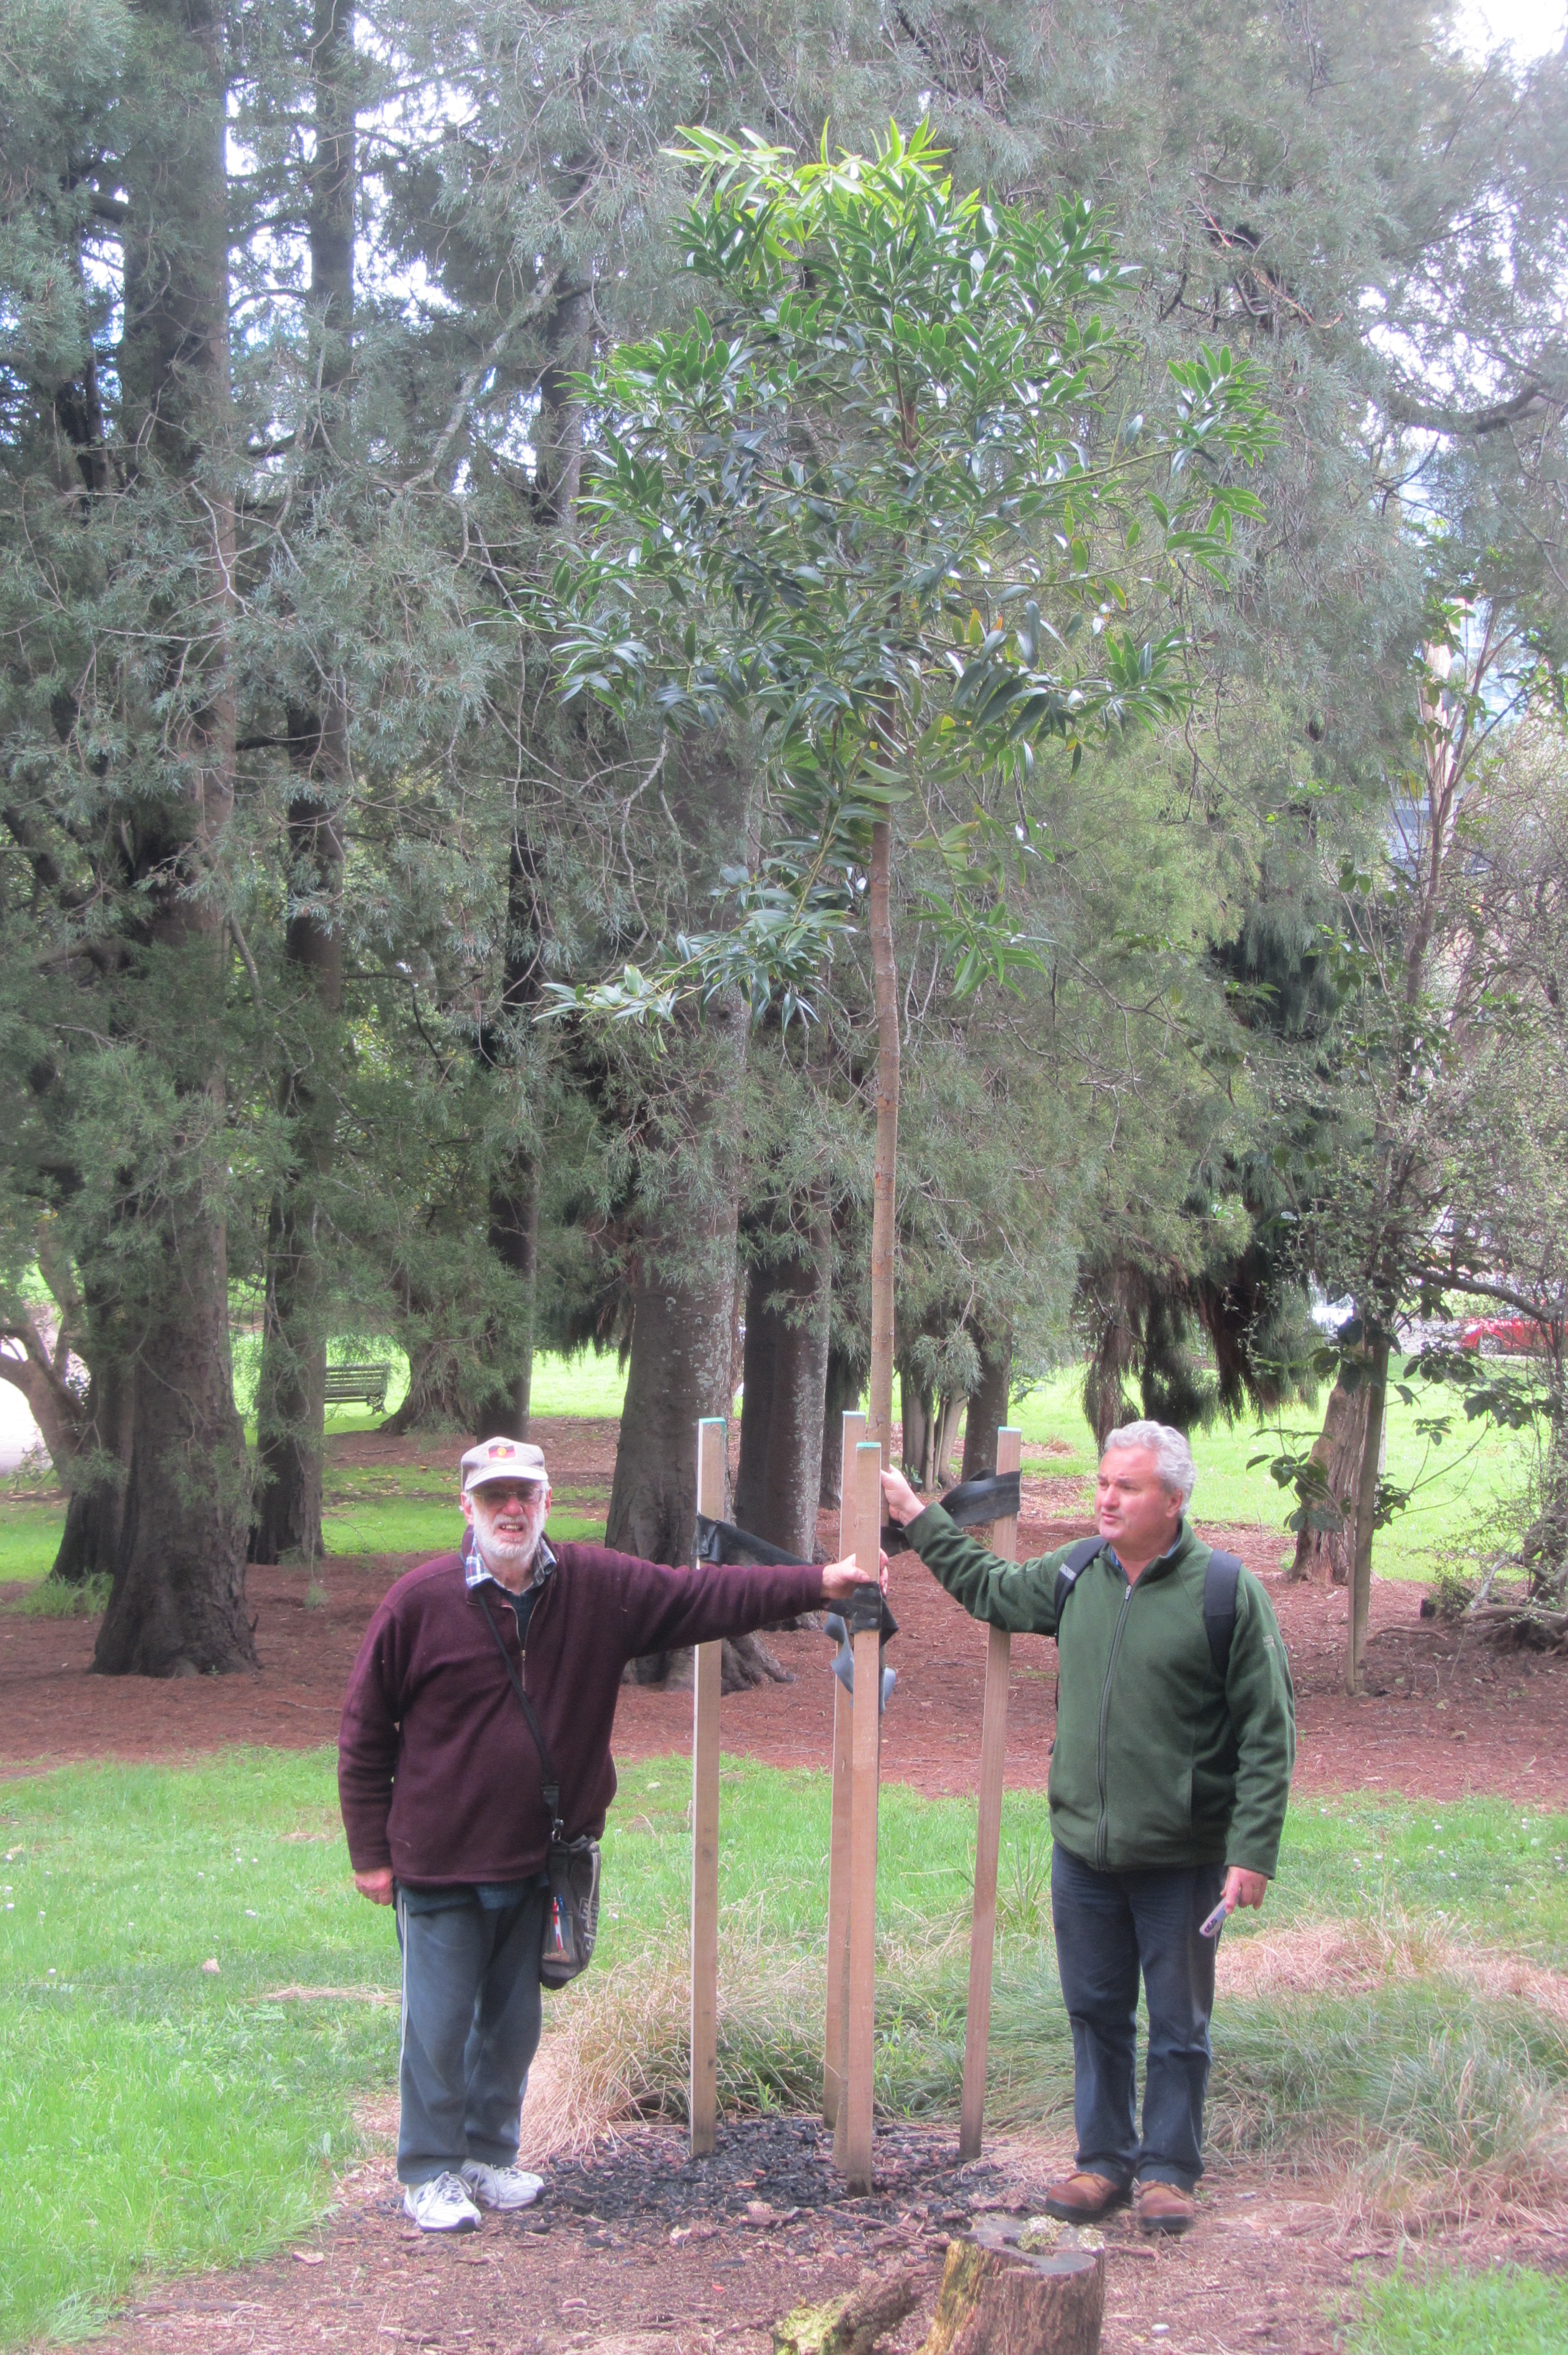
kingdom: Plantae
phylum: Tracheophyta
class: Pinopsida
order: Pinales
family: Araucariaceae
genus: Agathis
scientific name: Agathis macrophylla
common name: Fijian kauri pine
